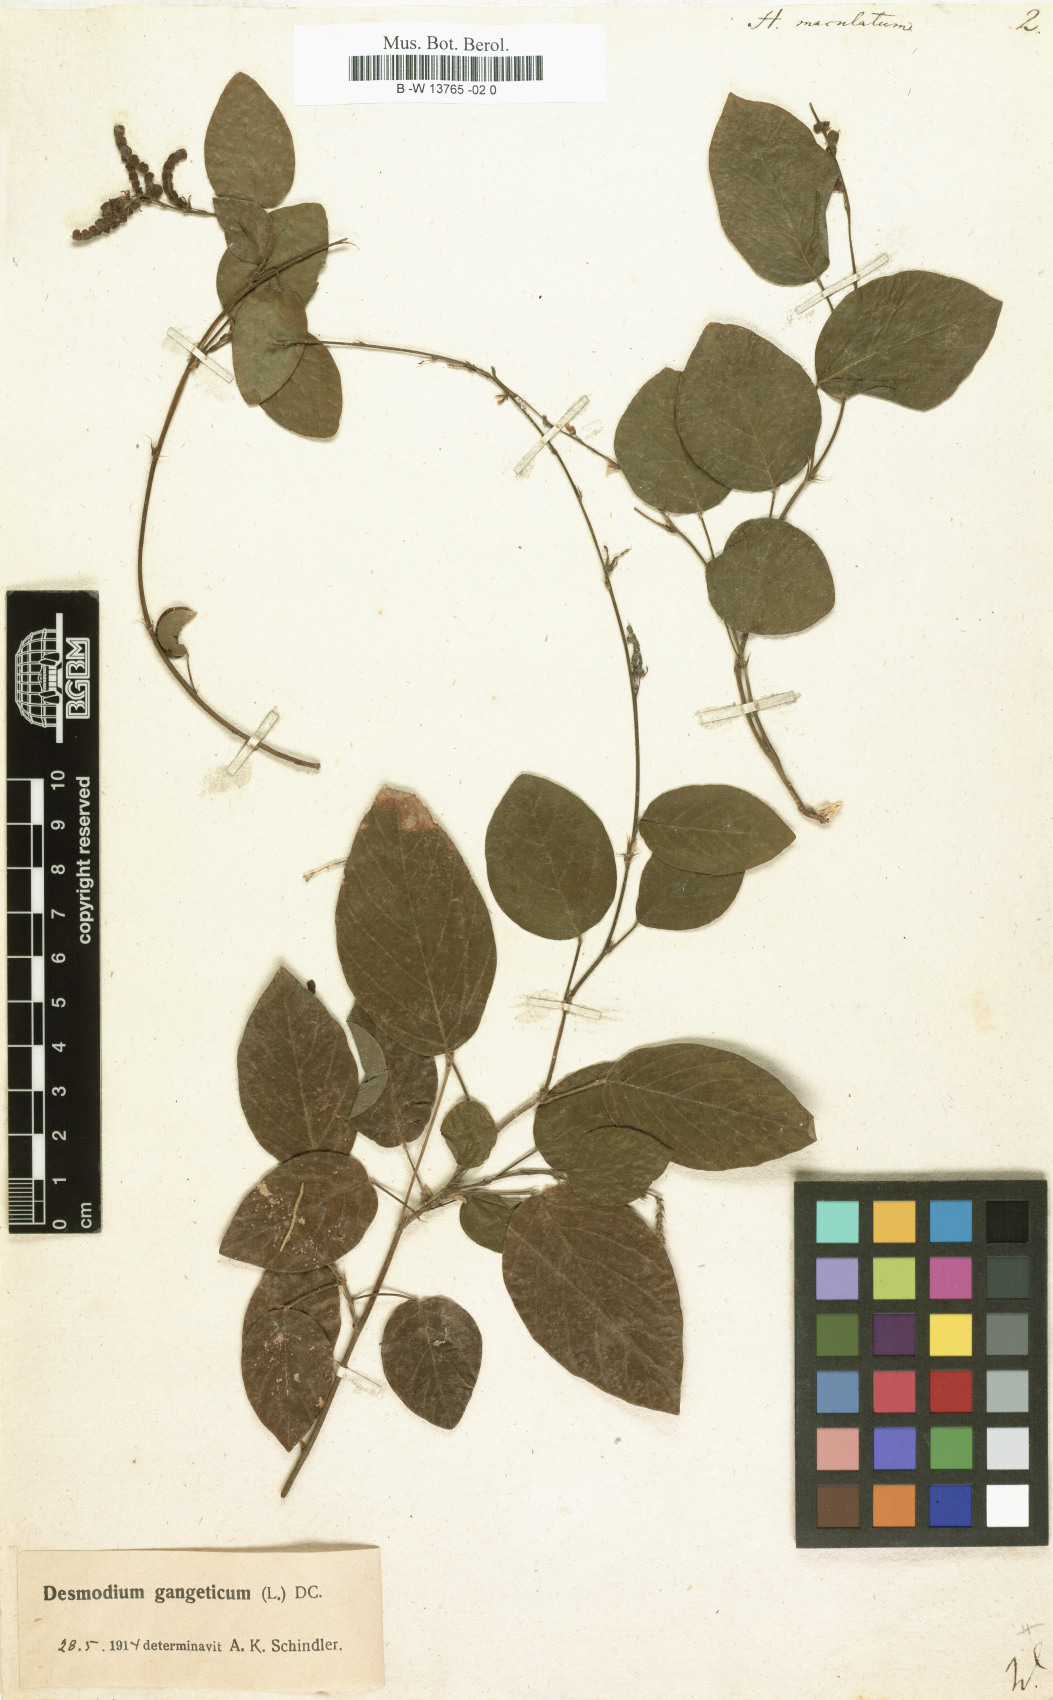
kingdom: Plantae
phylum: Tracheophyta
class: Magnoliopsida
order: Fabales
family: Fabaceae
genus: Pleurolobus
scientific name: Pleurolobus gangeticus
